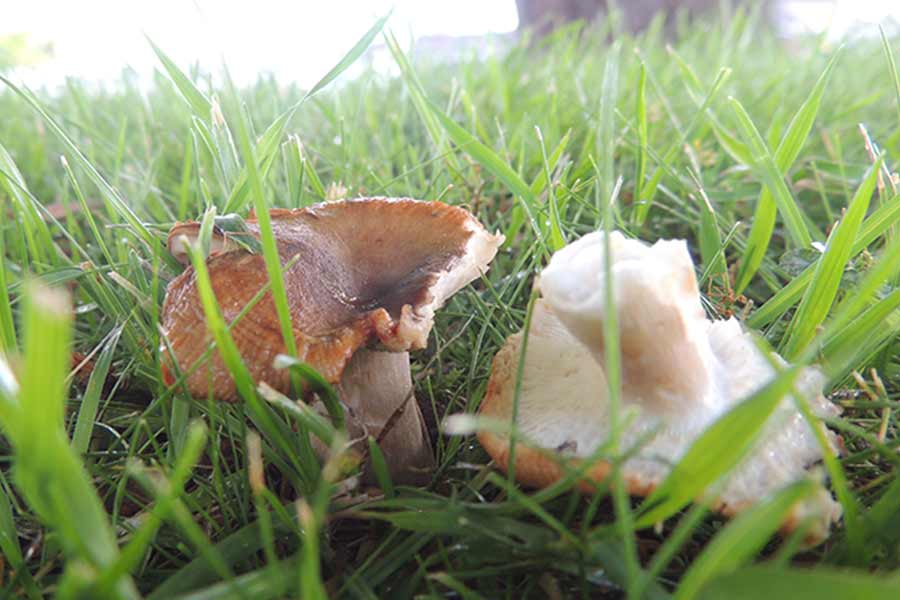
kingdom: Fungi
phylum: Basidiomycota
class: Agaricomycetes
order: Russulales
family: Russulaceae
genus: Russula
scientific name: Russula
